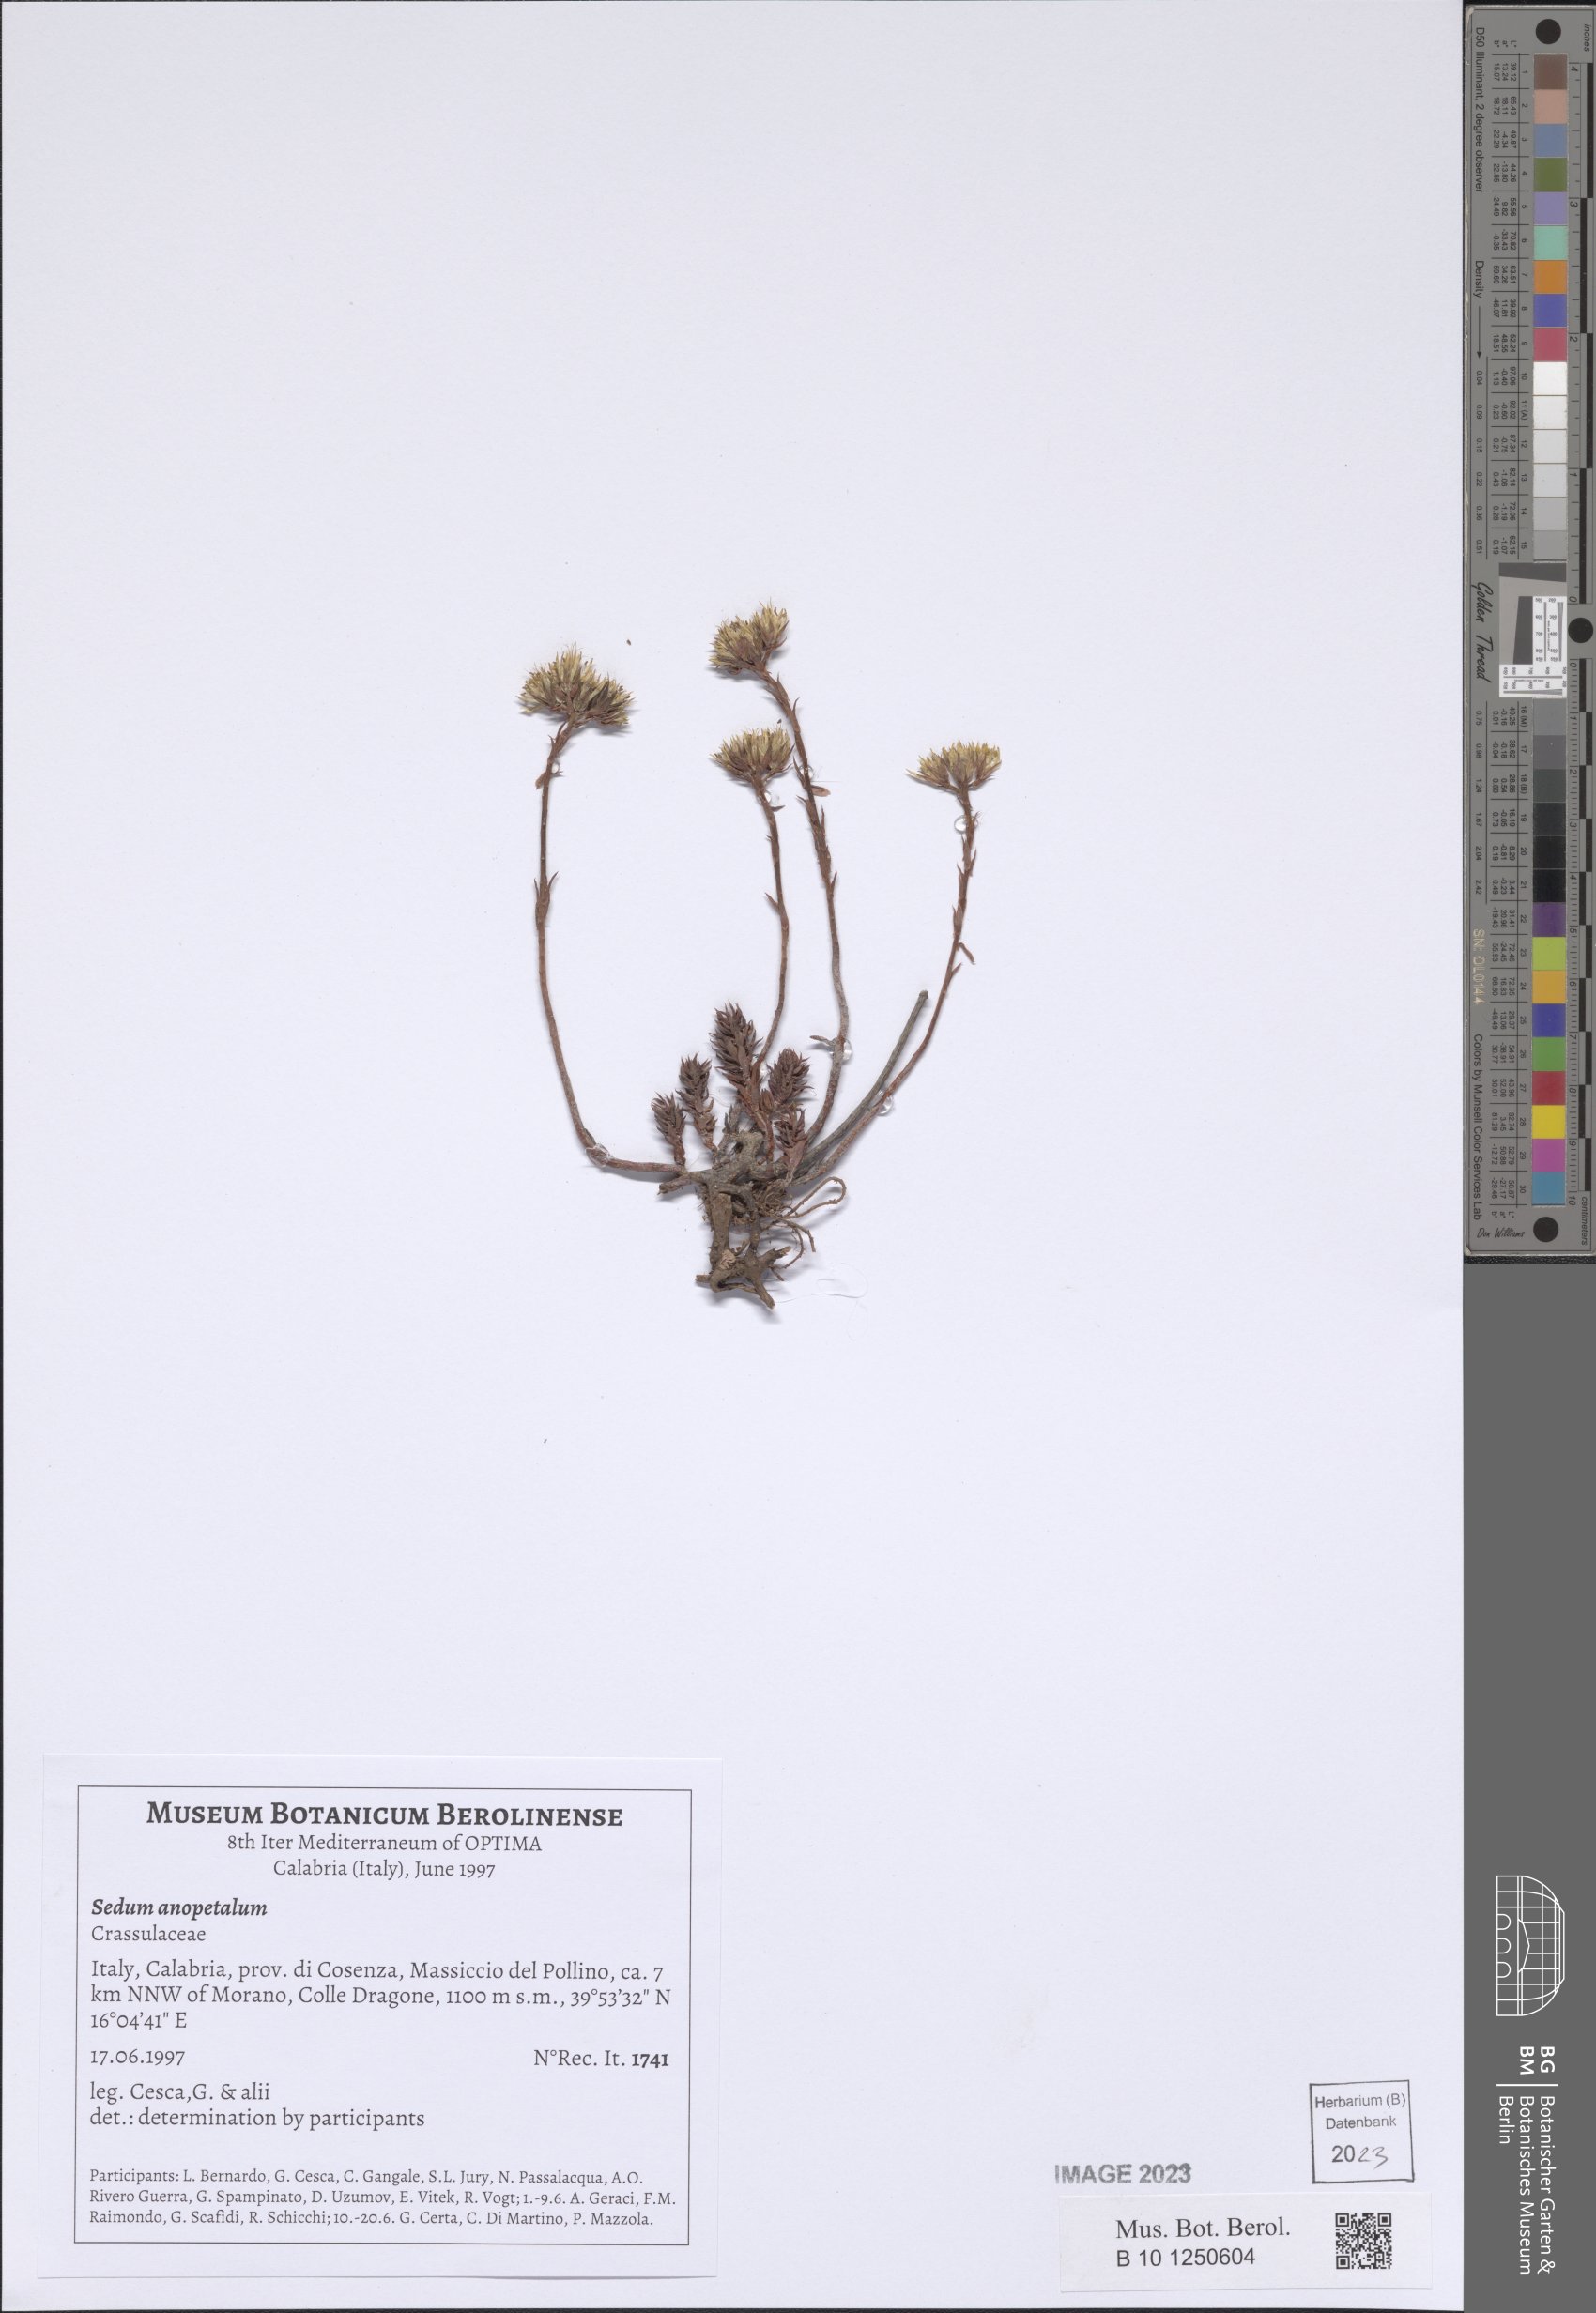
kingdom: Plantae
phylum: Tracheophyta
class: Magnoliopsida
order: Saxifragales
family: Crassulaceae
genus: Petrosedum
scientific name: Petrosedum
